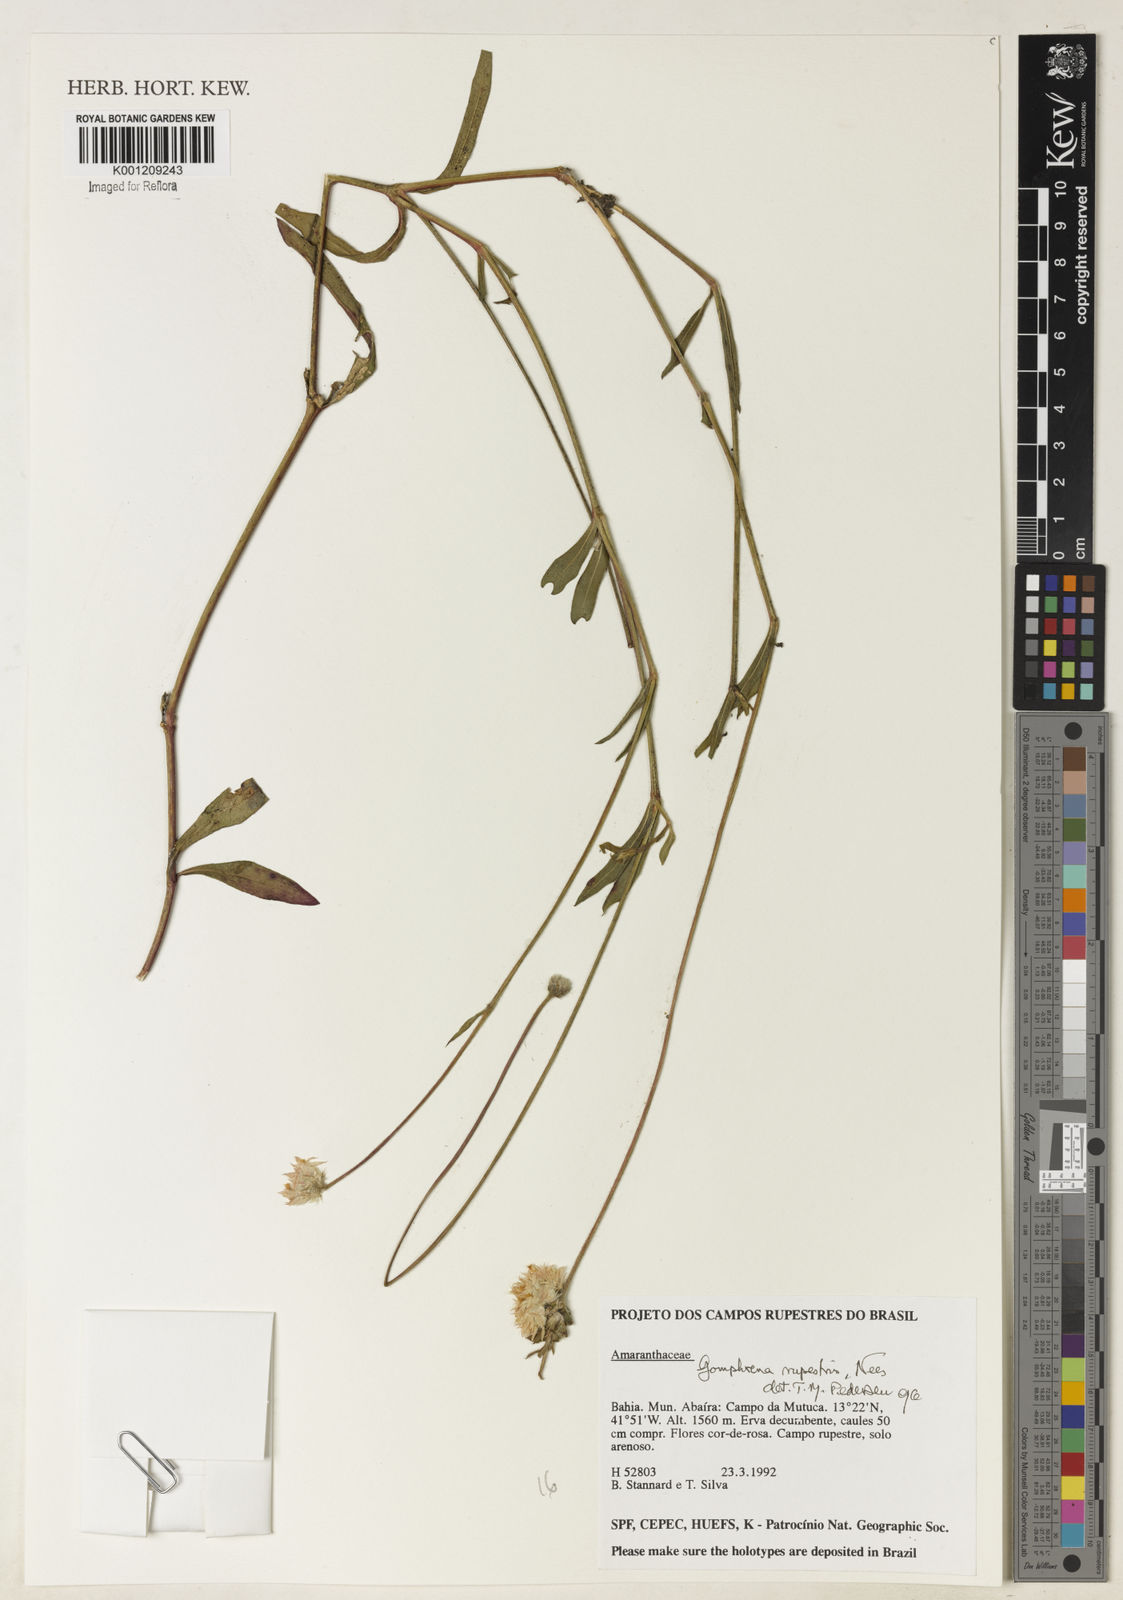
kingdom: Plantae
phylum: Tracheophyta
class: Magnoliopsida
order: Caryophyllales
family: Amaranthaceae
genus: Gomphrena
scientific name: Gomphrena rupestris
